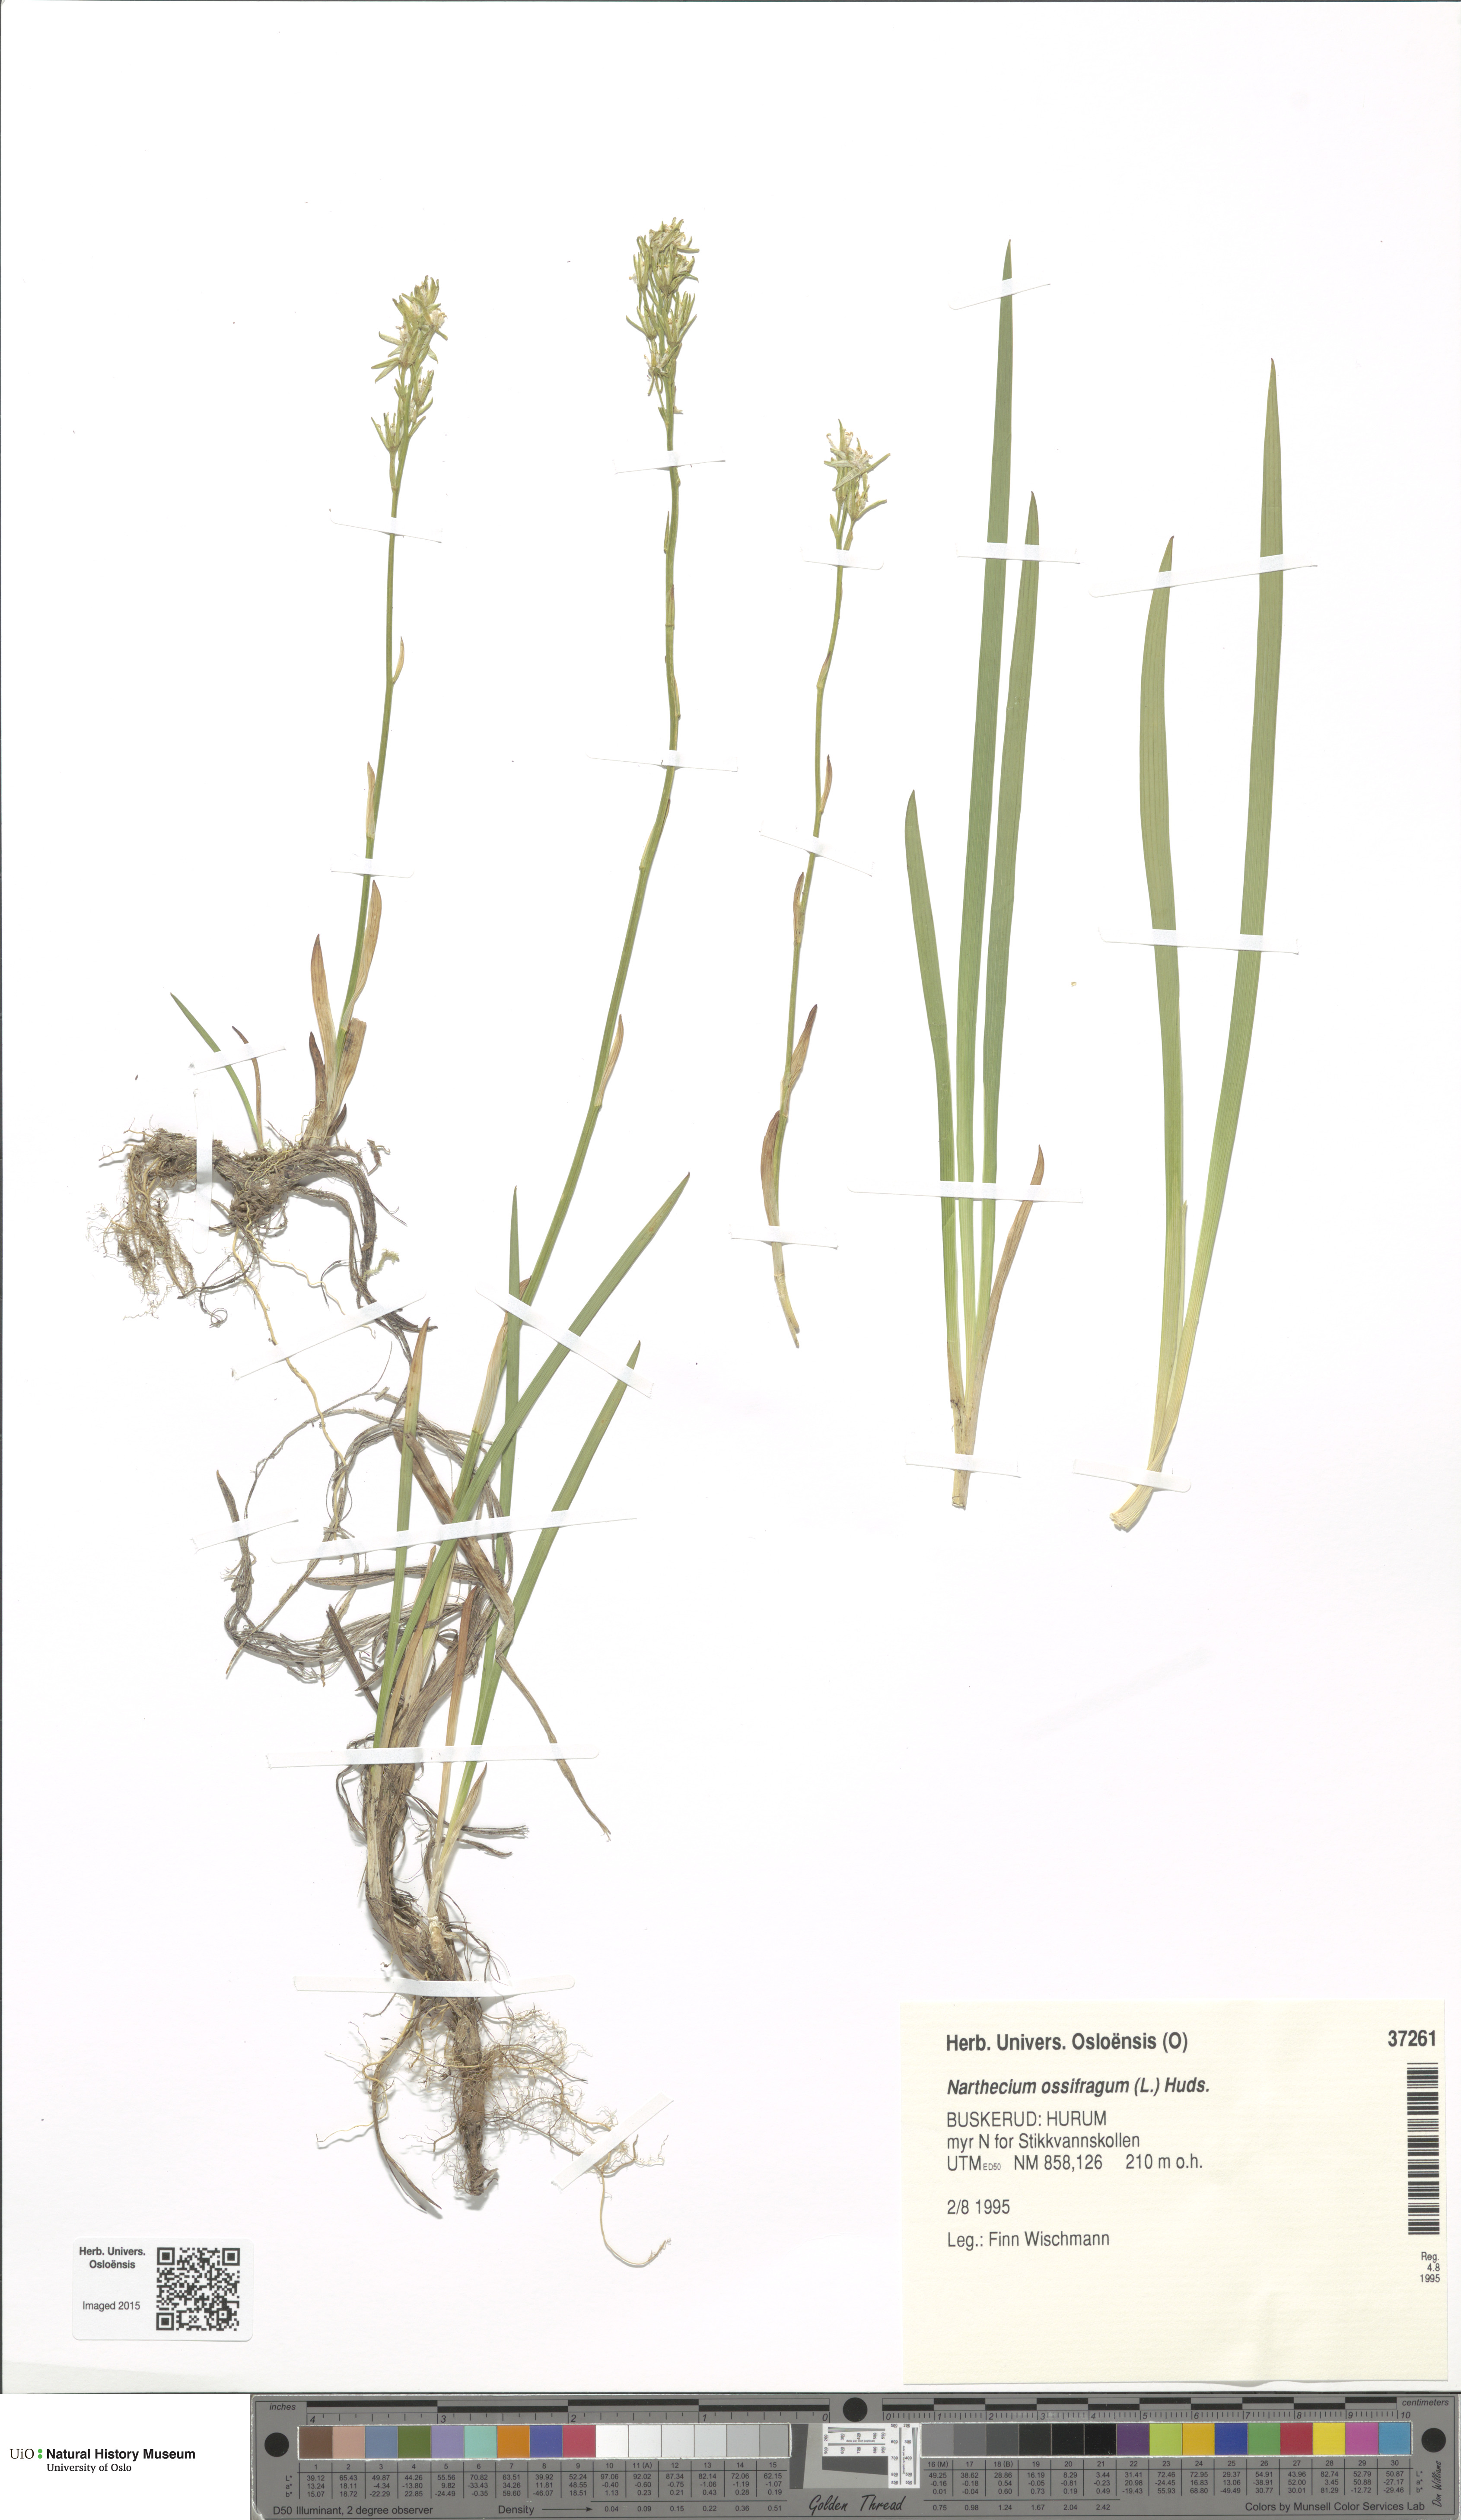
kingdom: Plantae
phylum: Tracheophyta
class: Liliopsida
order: Dioscoreales
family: Nartheciaceae
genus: Narthecium
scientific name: Narthecium ossifragum
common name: Bog asphodel
